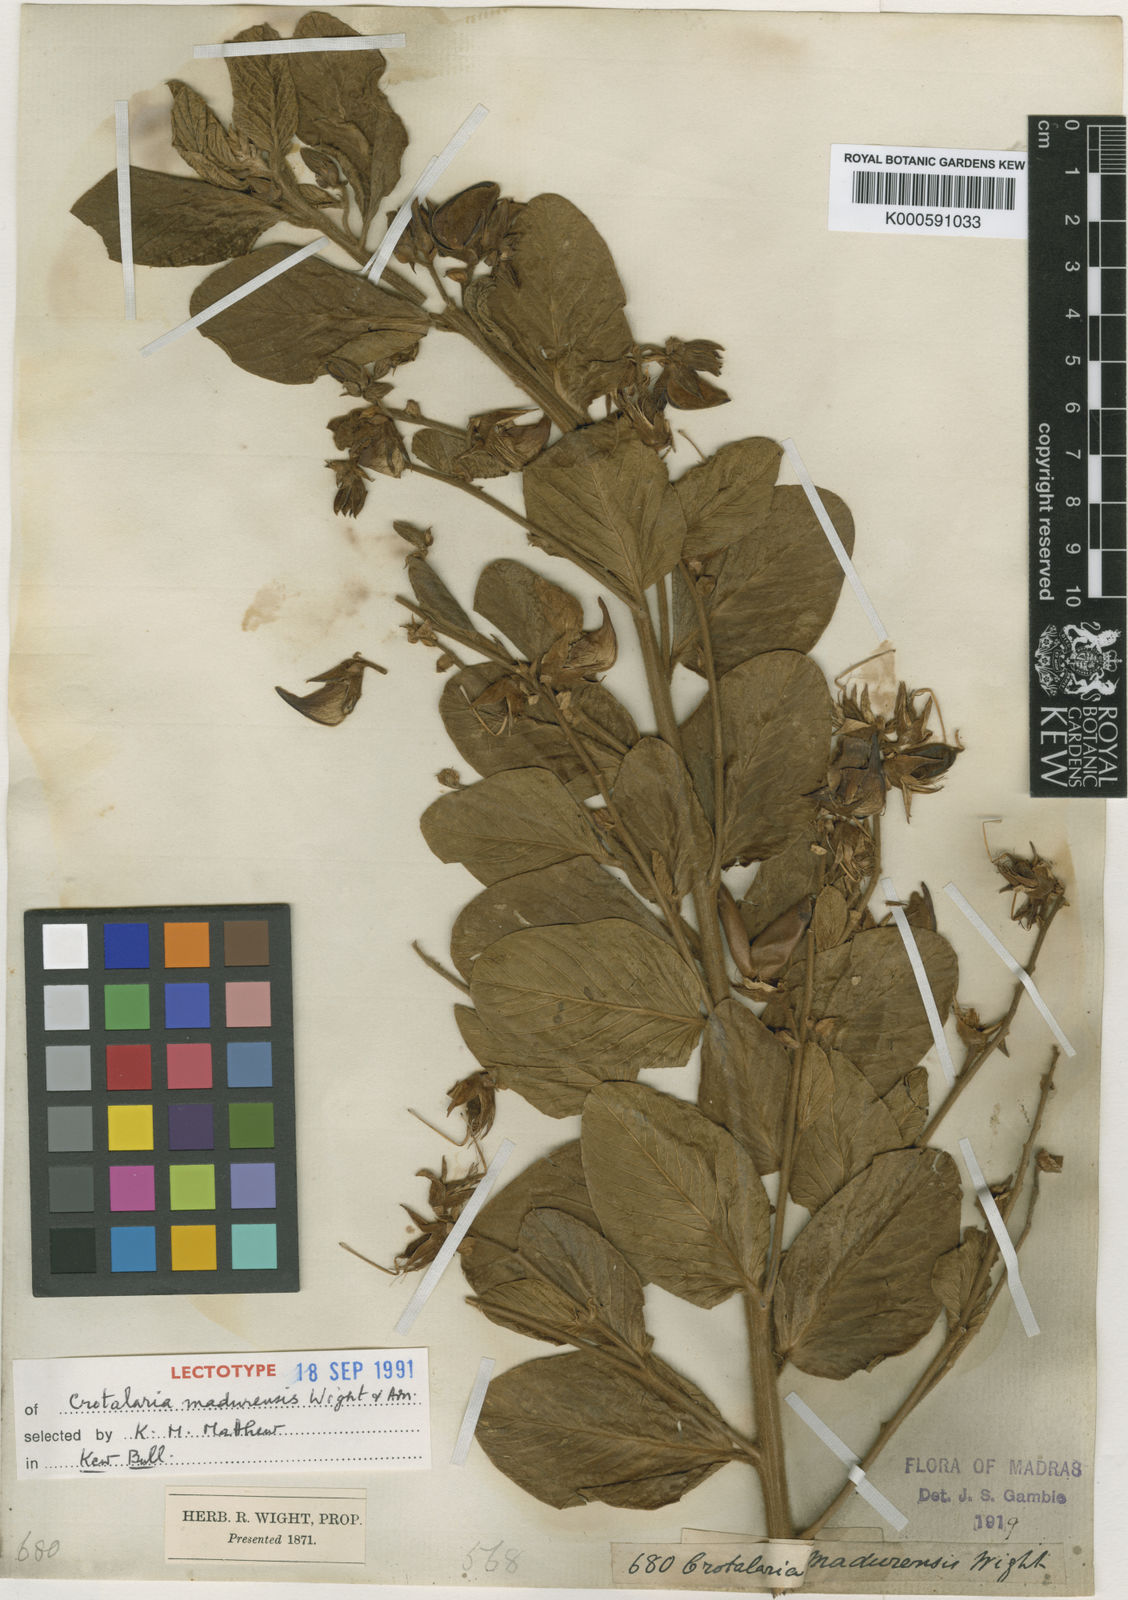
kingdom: Plantae
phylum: Tracheophyta
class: Magnoliopsida
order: Fabales
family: Fabaceae
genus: Crotalaria
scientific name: Crotalaria
